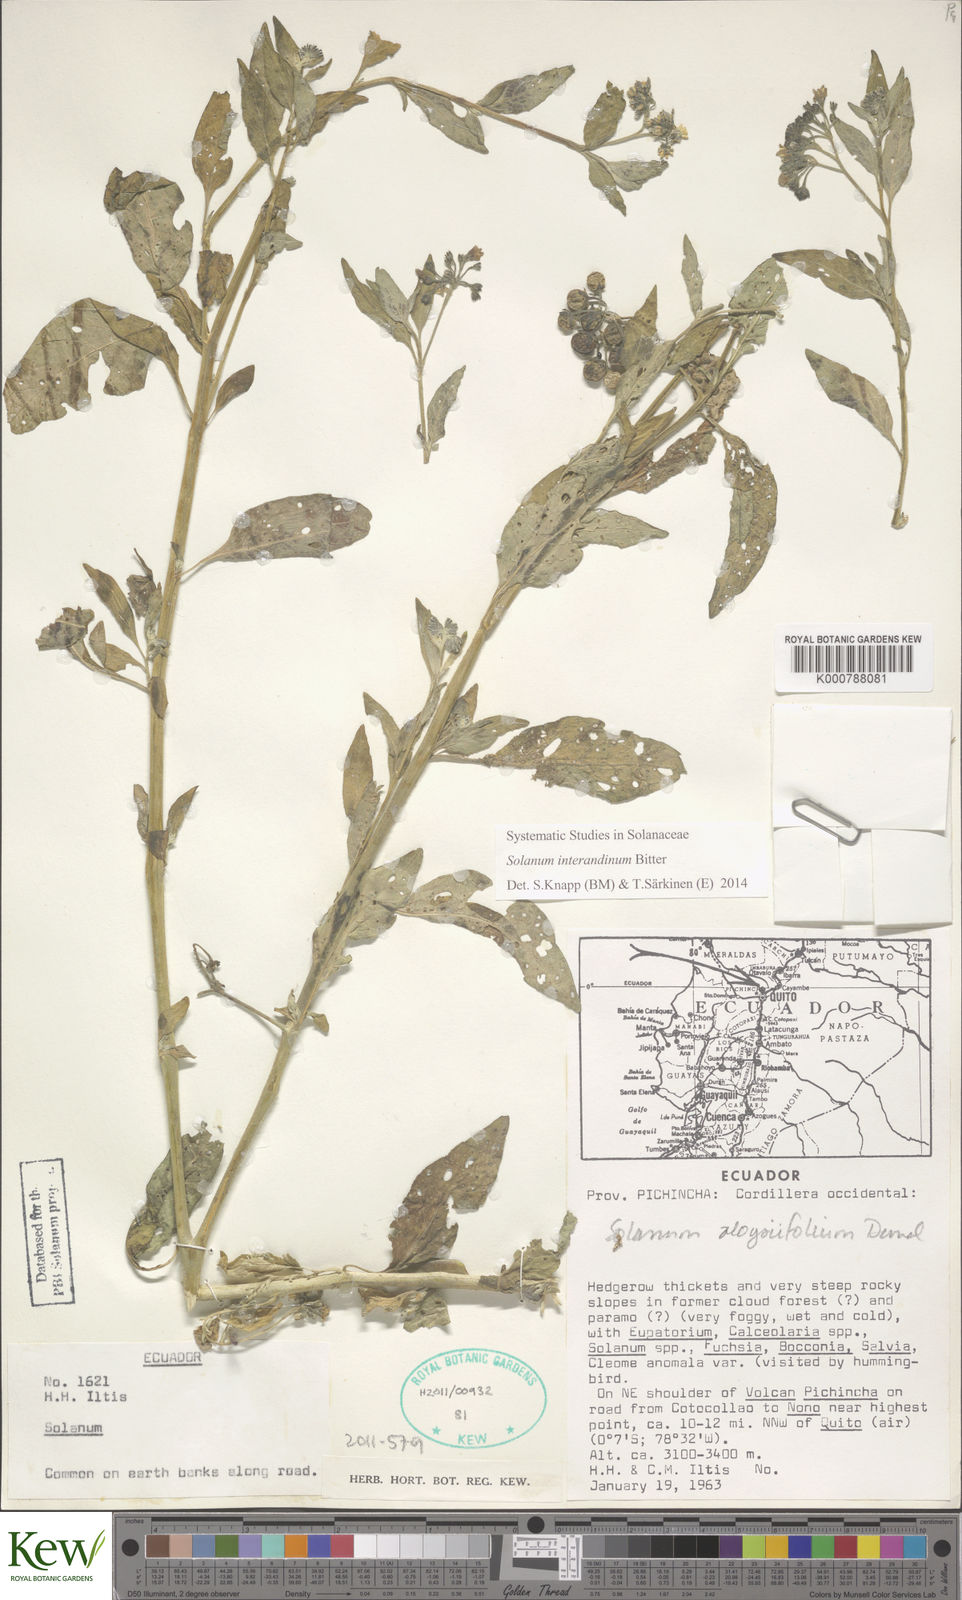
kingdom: Plantae
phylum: Tracheophyta
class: Magnoliopsida
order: Solanales
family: Solanaceae
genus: Solanum
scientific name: Solanum pentlandii
